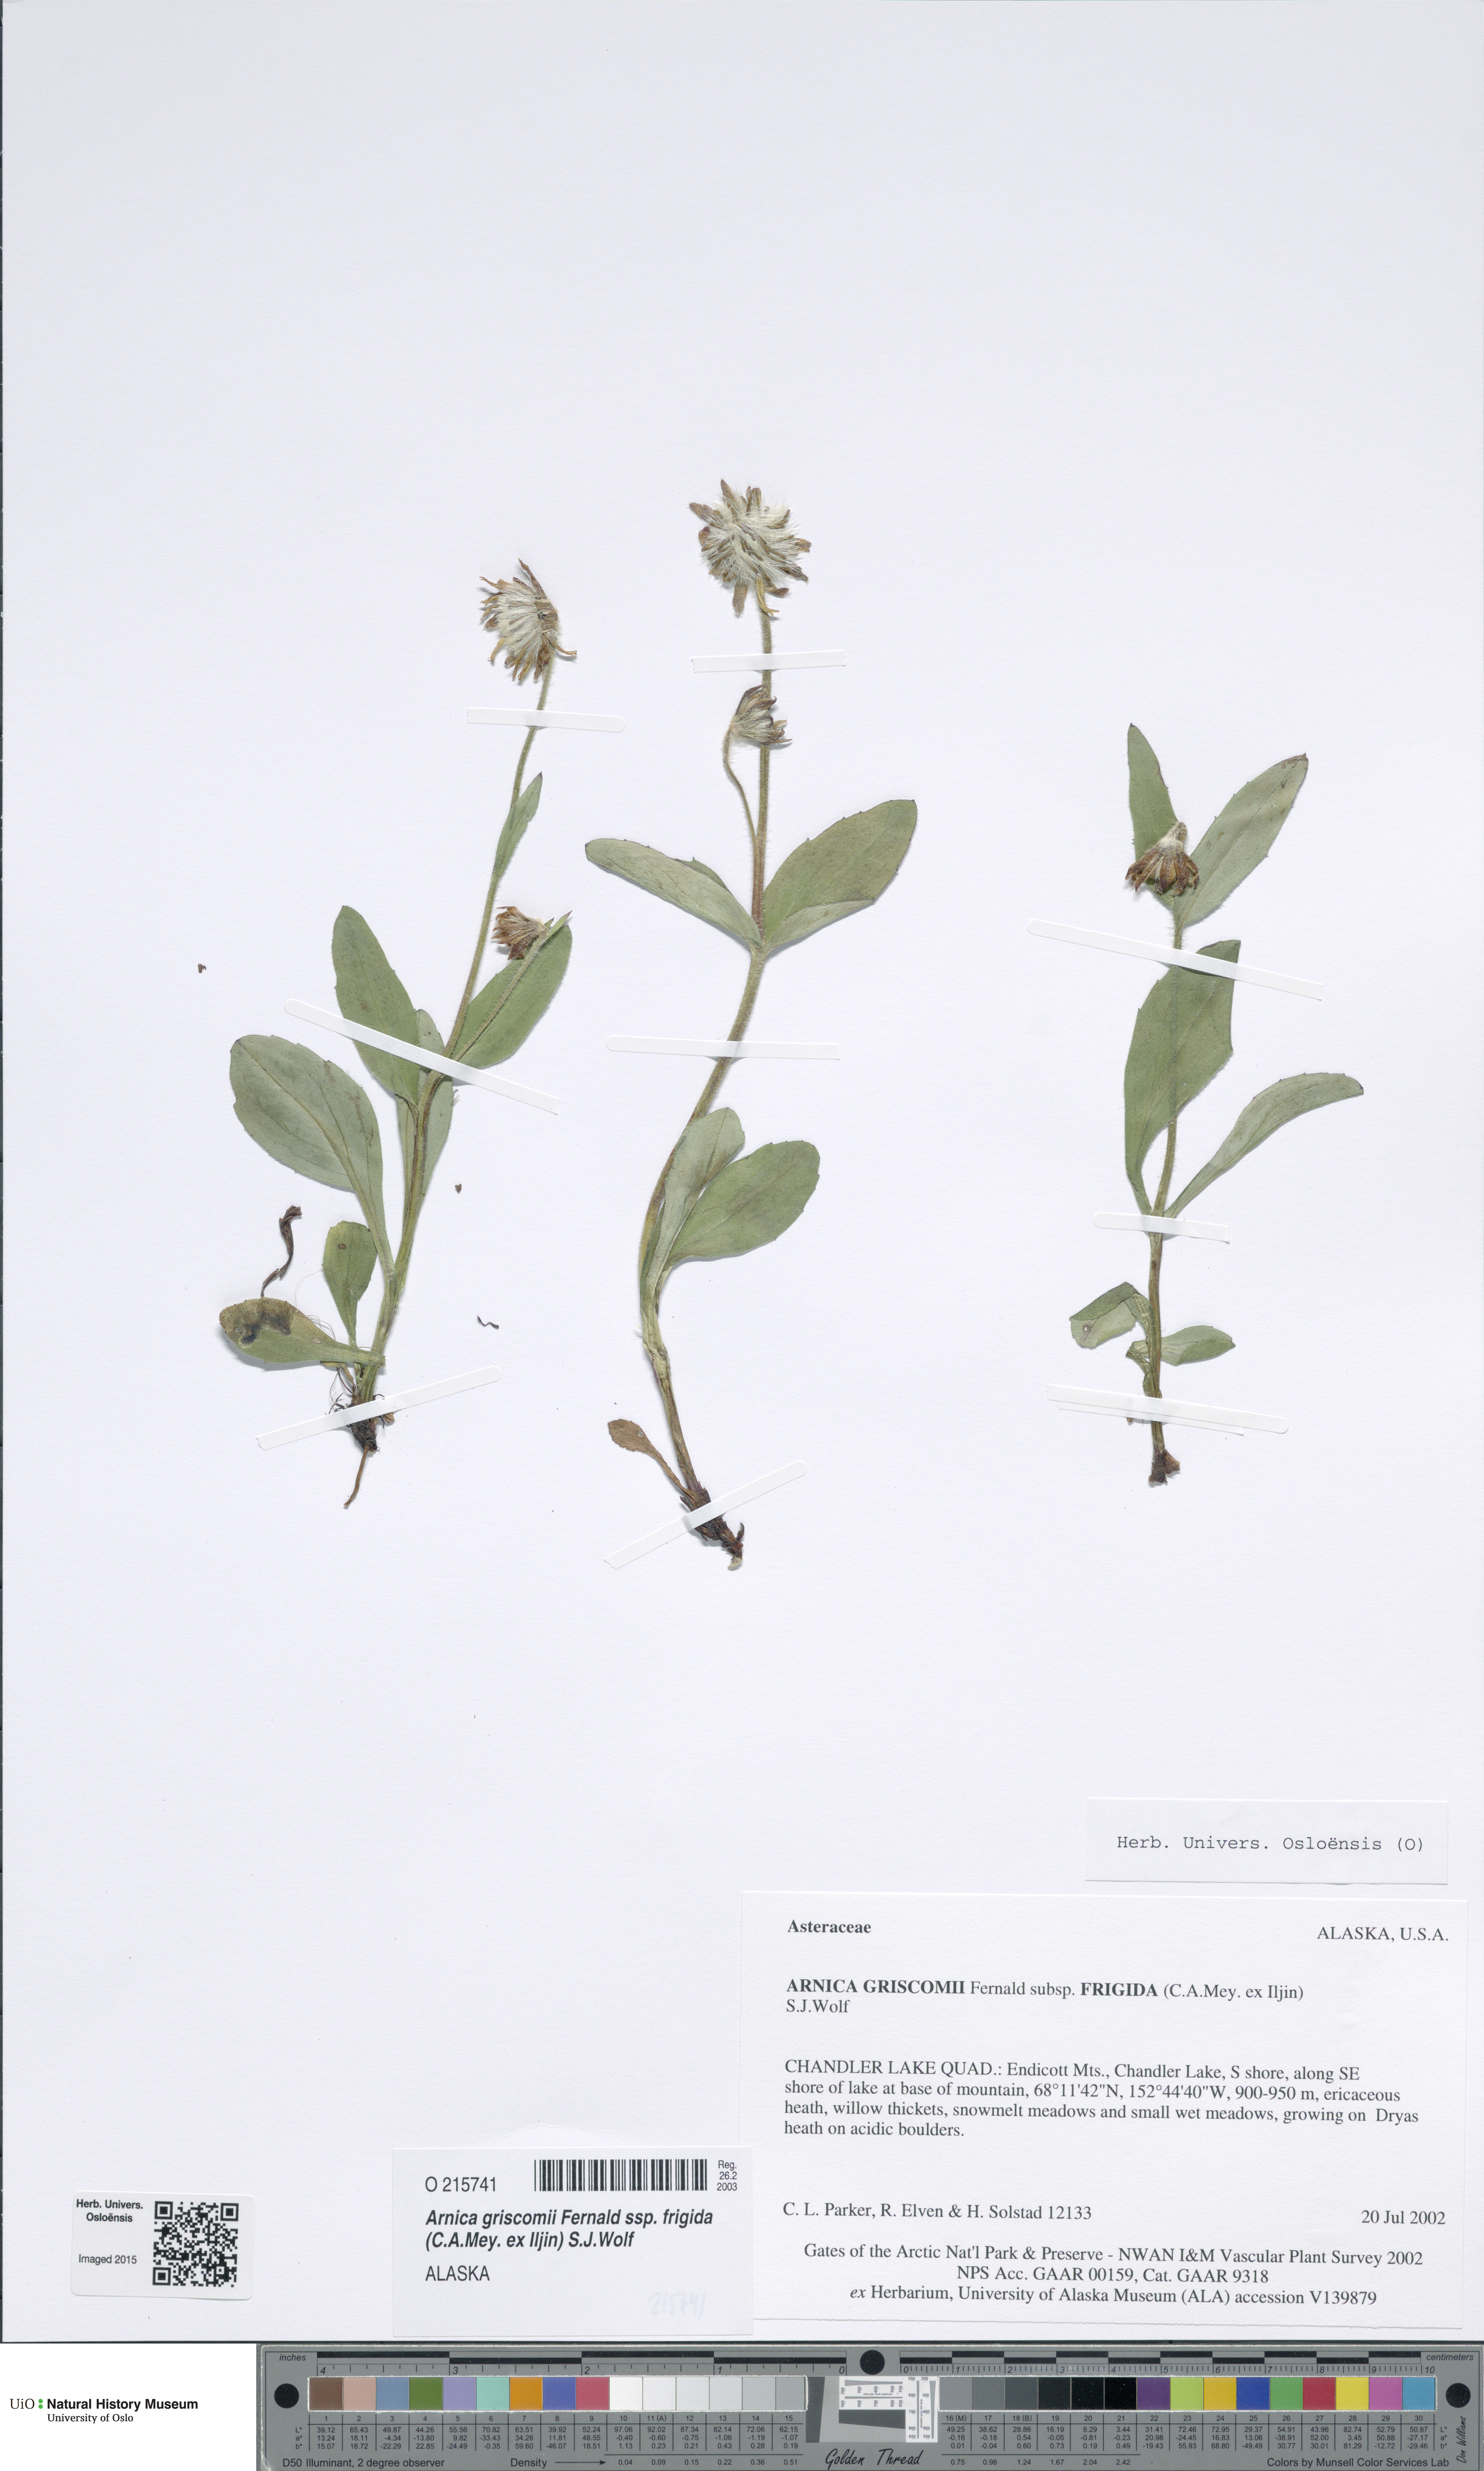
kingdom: Plantae
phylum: Tracheophyta
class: Magnoliopsida
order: Asterales
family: Asteraceae
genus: Arnica
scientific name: Arnica griscomii
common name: Snow arnica
